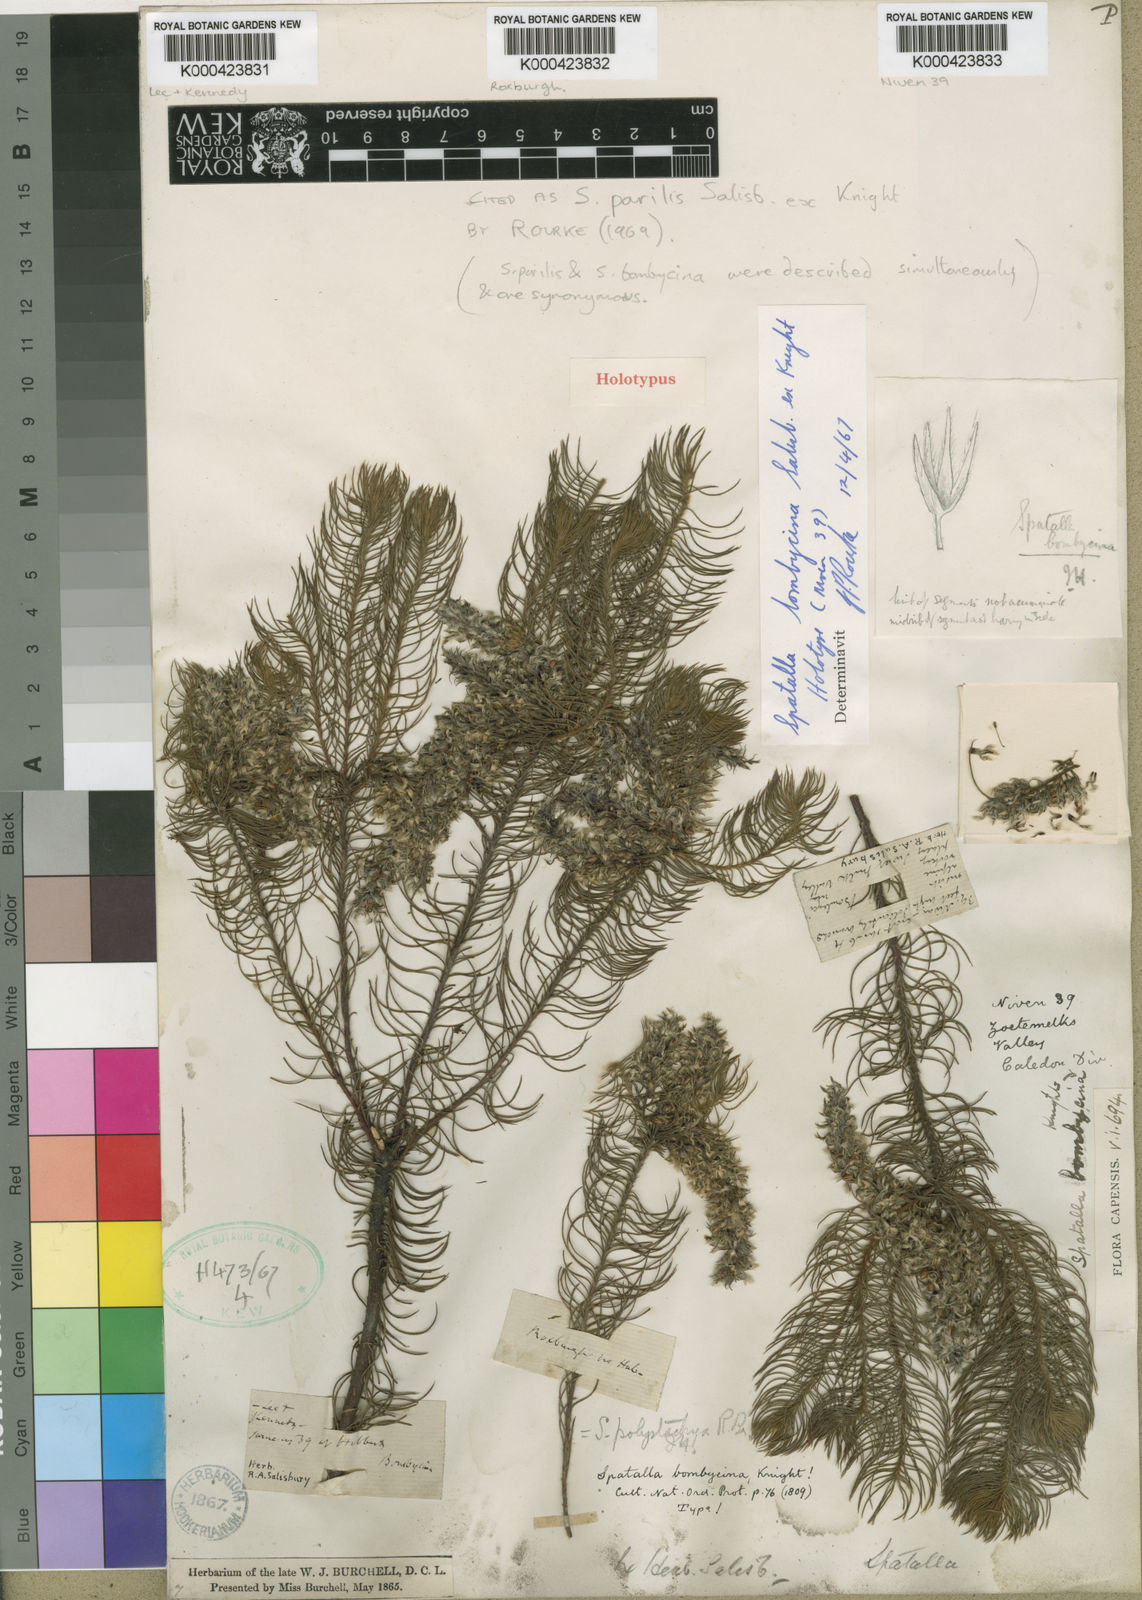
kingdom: Plantae
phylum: Tracheophyta
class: Magnoliopsida
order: Proteales
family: Proteaceae
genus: Spatalla
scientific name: Spatalla parilis
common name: Spike spoon
